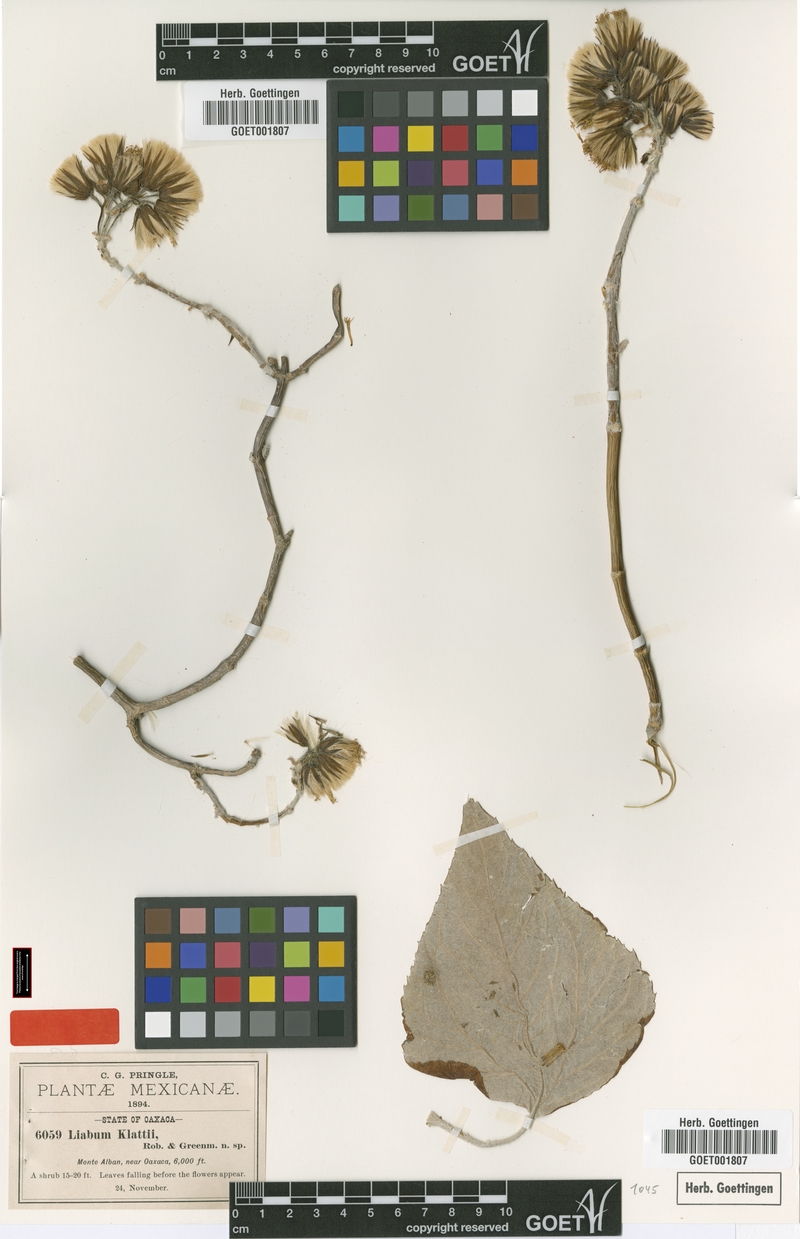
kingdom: Plantae
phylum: Tracheophyta
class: Magnoliopsida
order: Asterales
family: Asteraceae
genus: Sinclairiopsis
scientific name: Sinclairiopsis klattii
